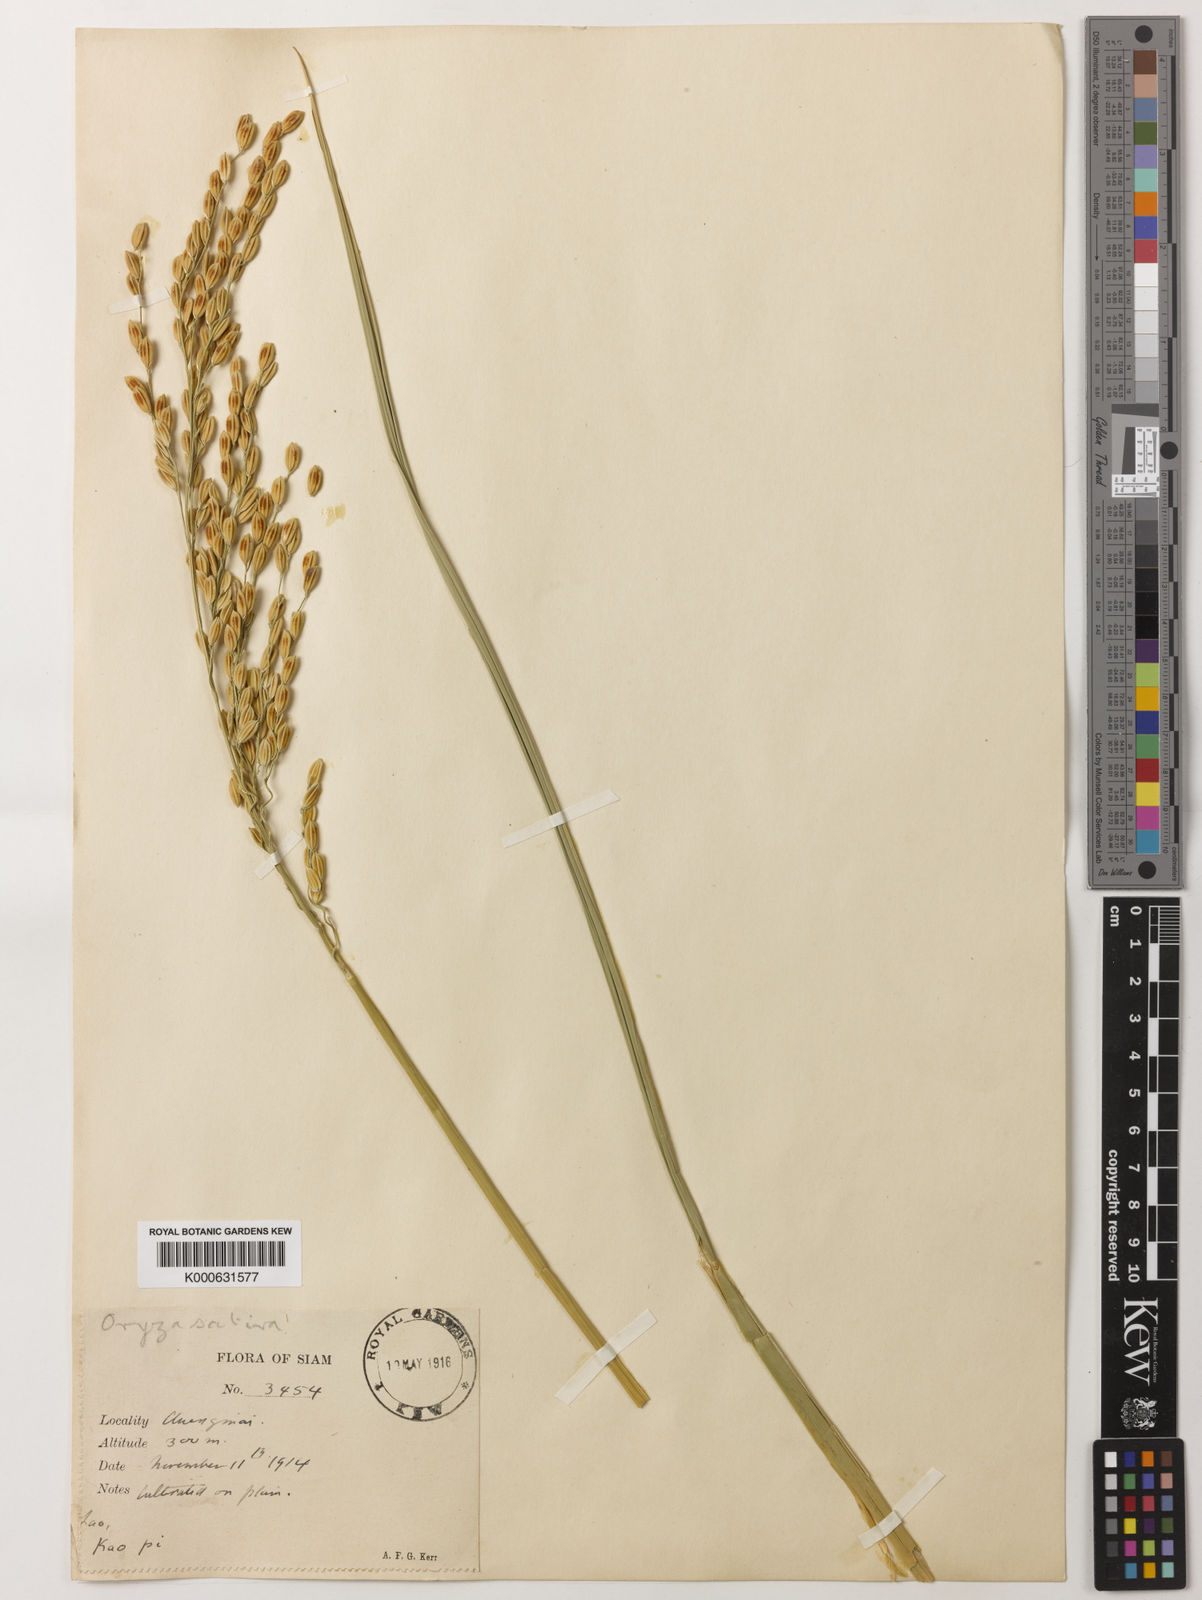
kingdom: Plantae
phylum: Tracheophyta
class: Liliopsida
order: Poales
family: Poaceae
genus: Oryza
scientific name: Oryza sativa
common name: Rice
